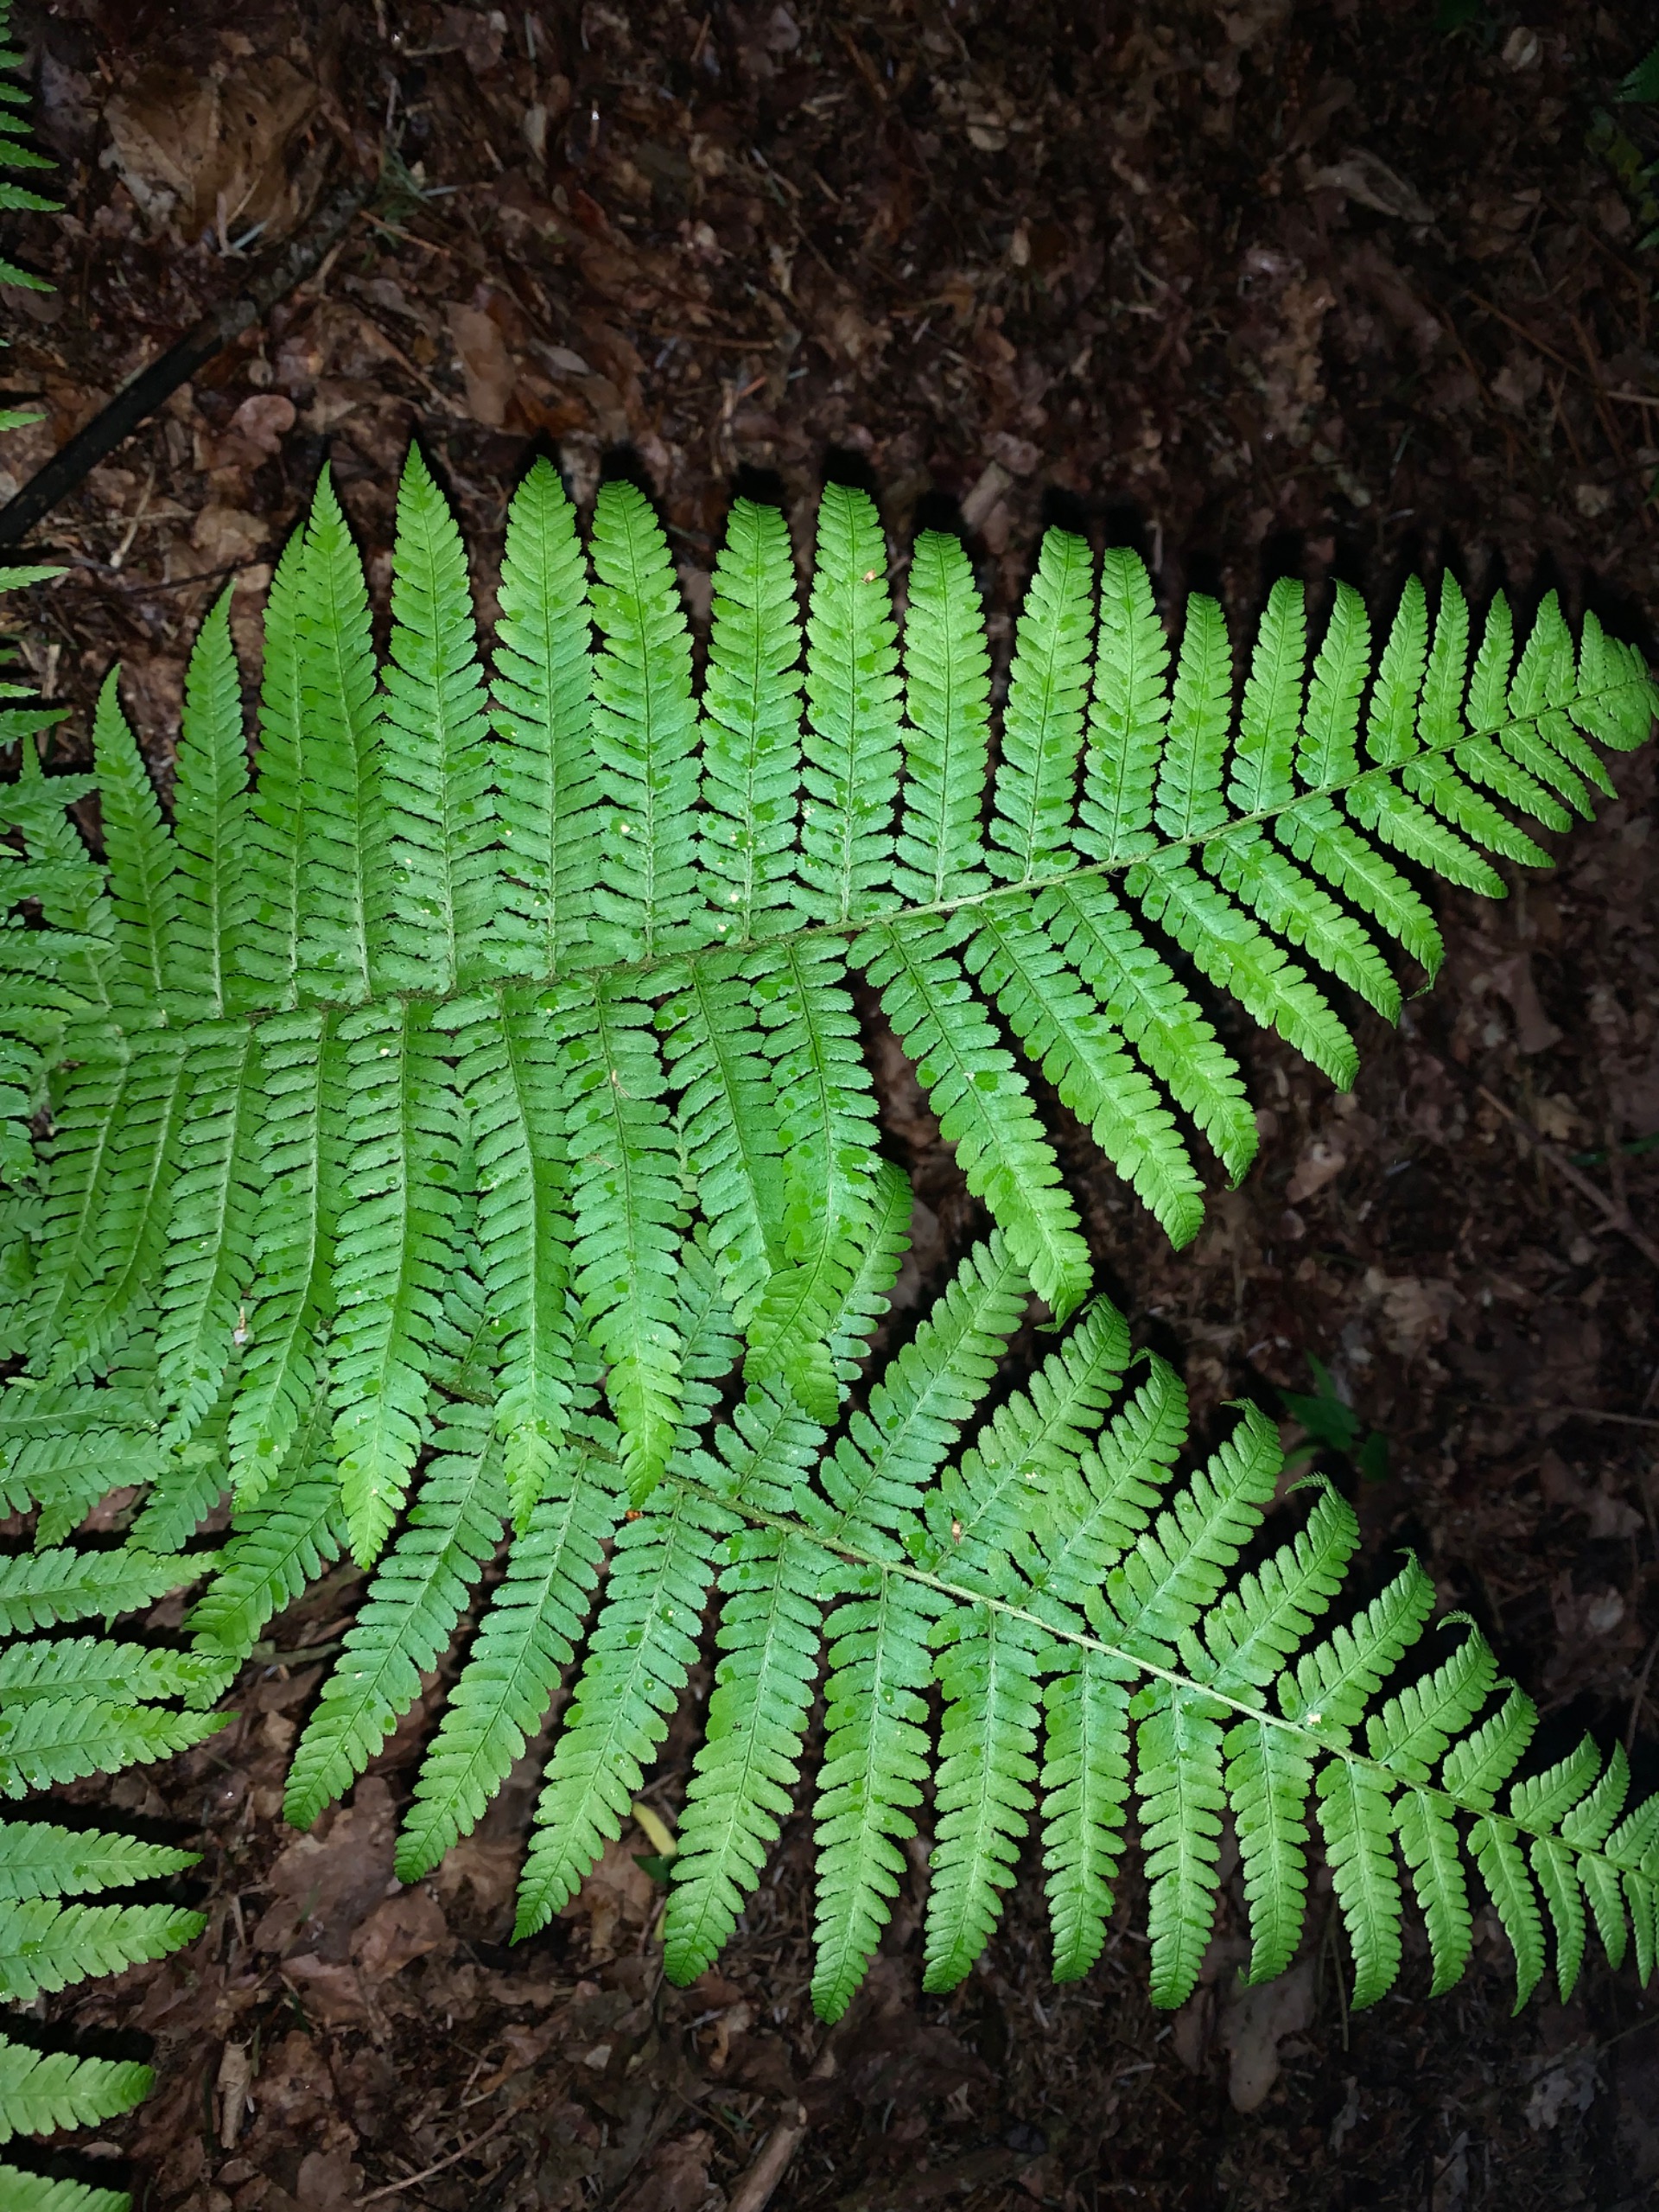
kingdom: Plantae
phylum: Tracheophyta
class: Polypodiopsida
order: Polypodiales
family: Dryopteridaceae
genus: Dryopteris
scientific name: Dryopteris filix-mas
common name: Almindelig mangeløv
